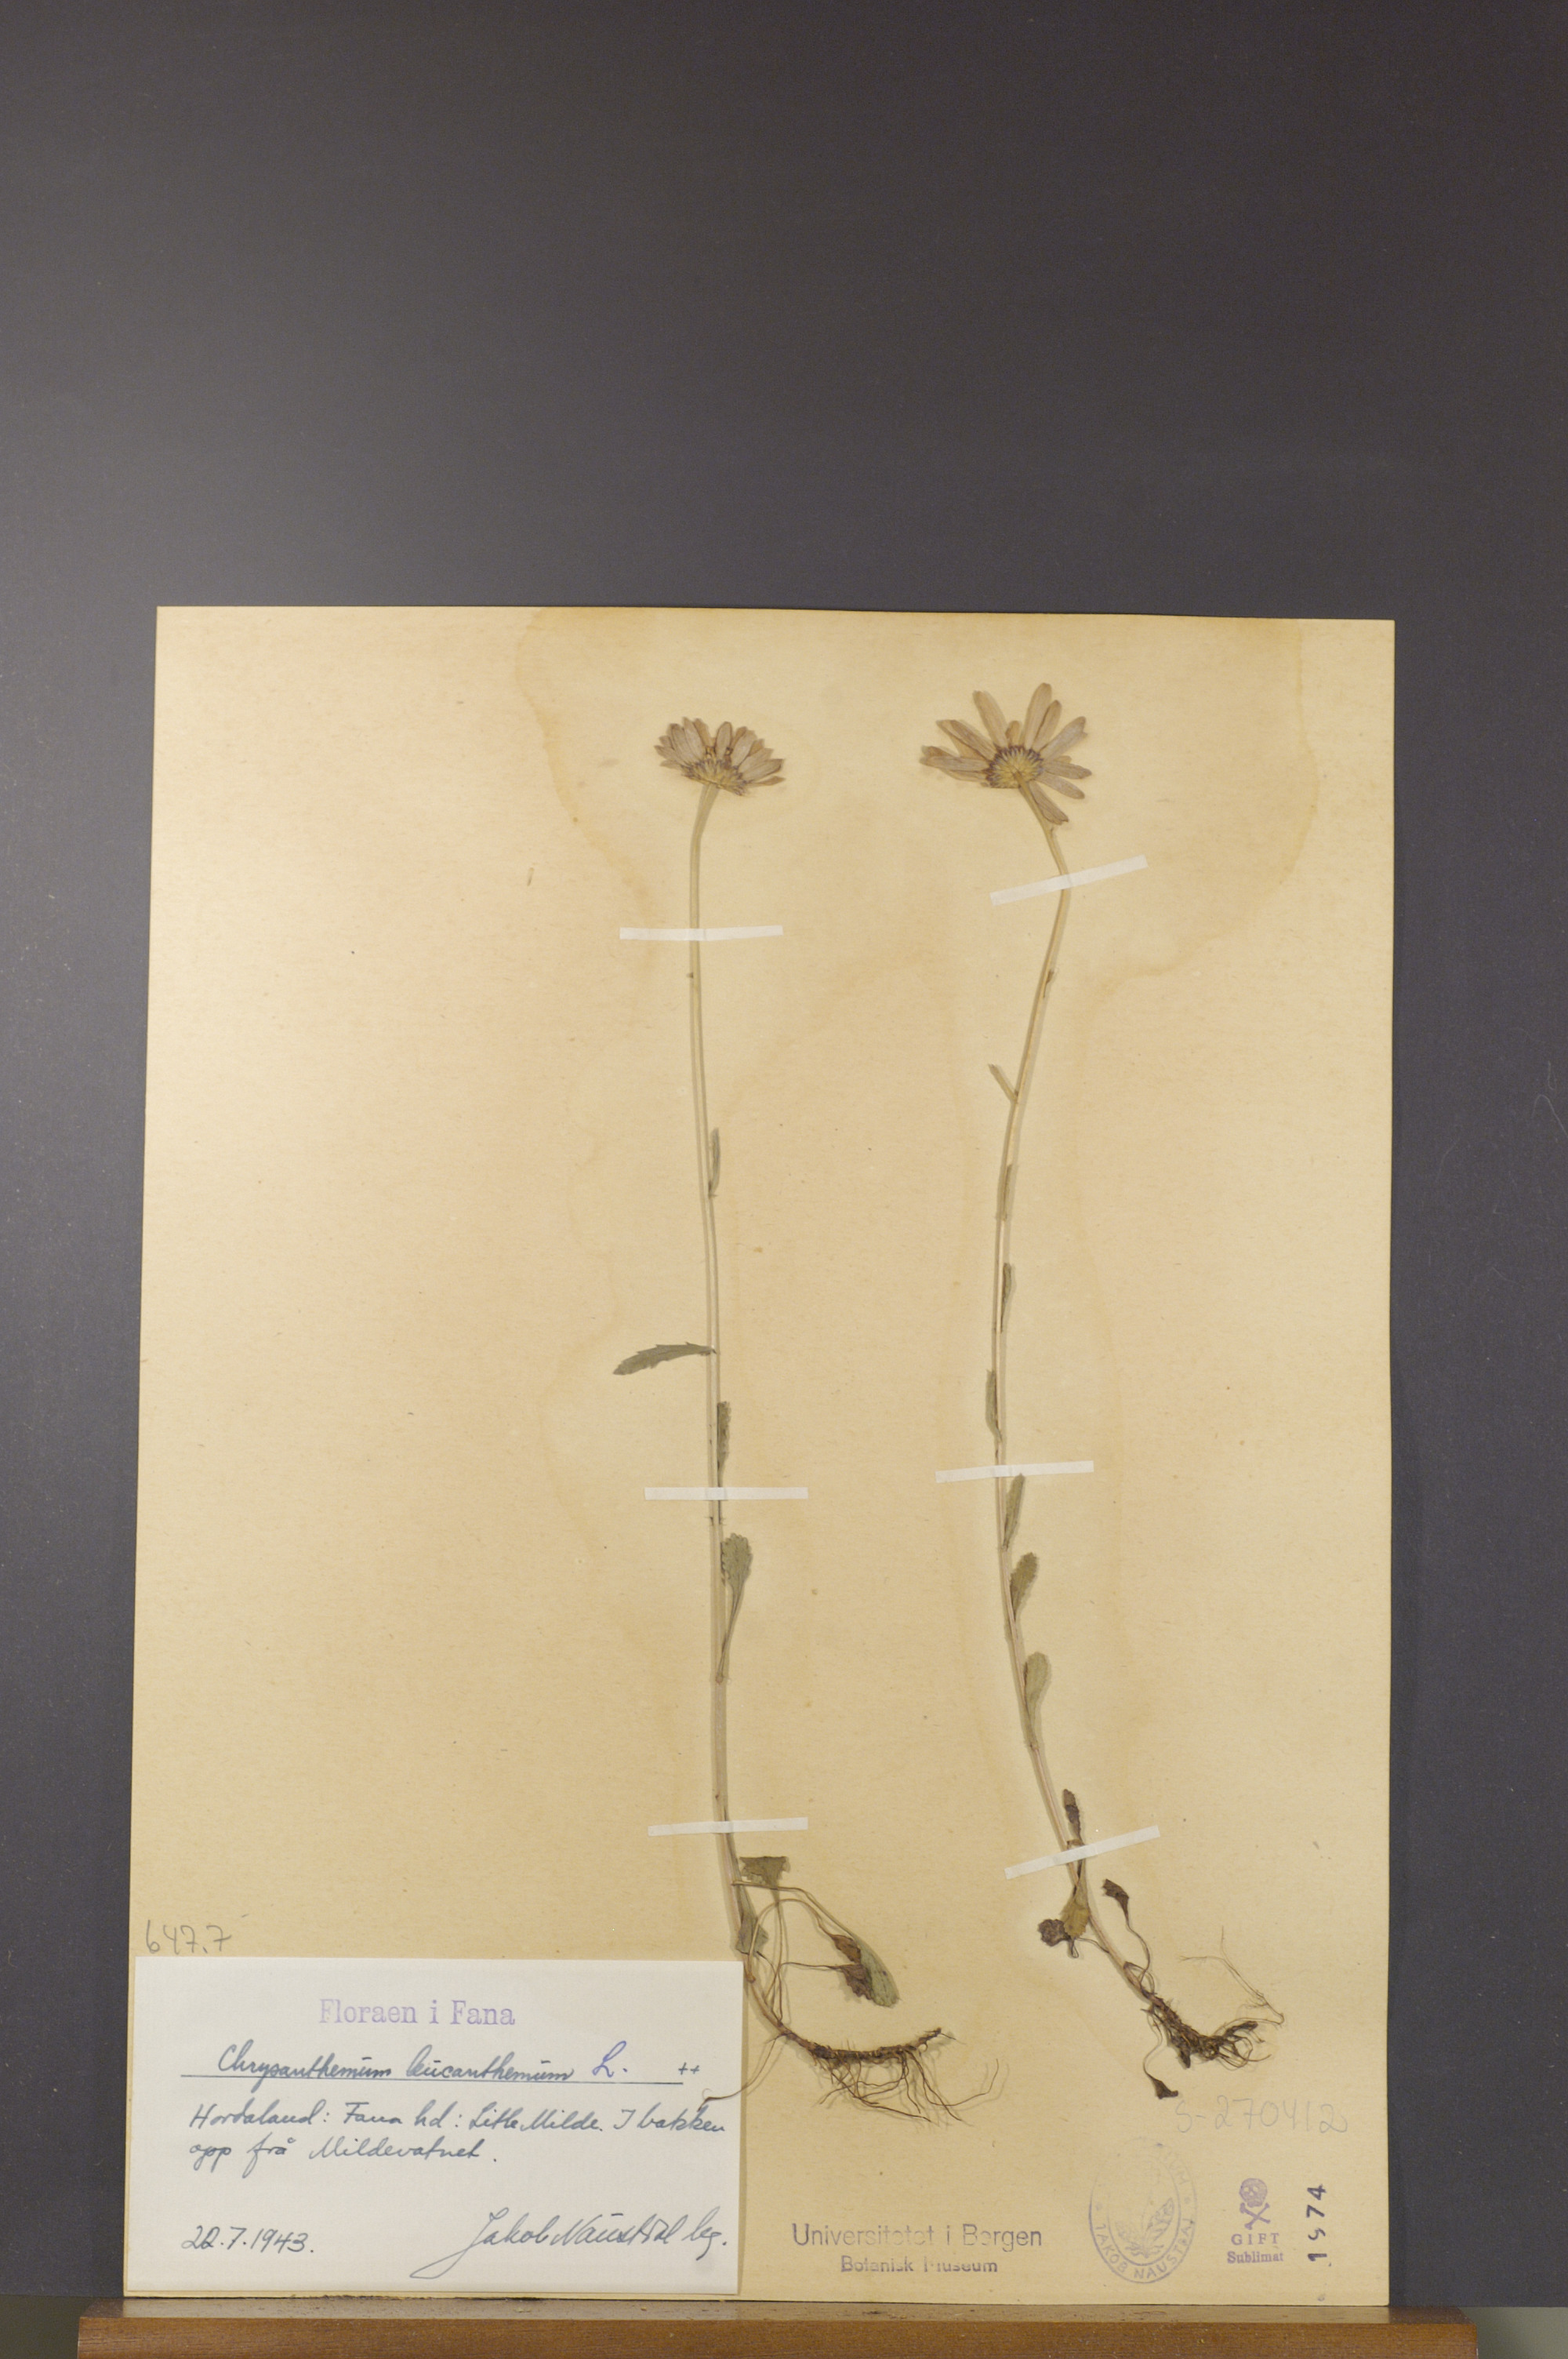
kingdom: Plantae
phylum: Tracheophyta
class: Magnoliopsida
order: Asterales
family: Asteraceae
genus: Leucanthemum
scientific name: Leucanthemum vulgare
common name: Oxeye daisy
